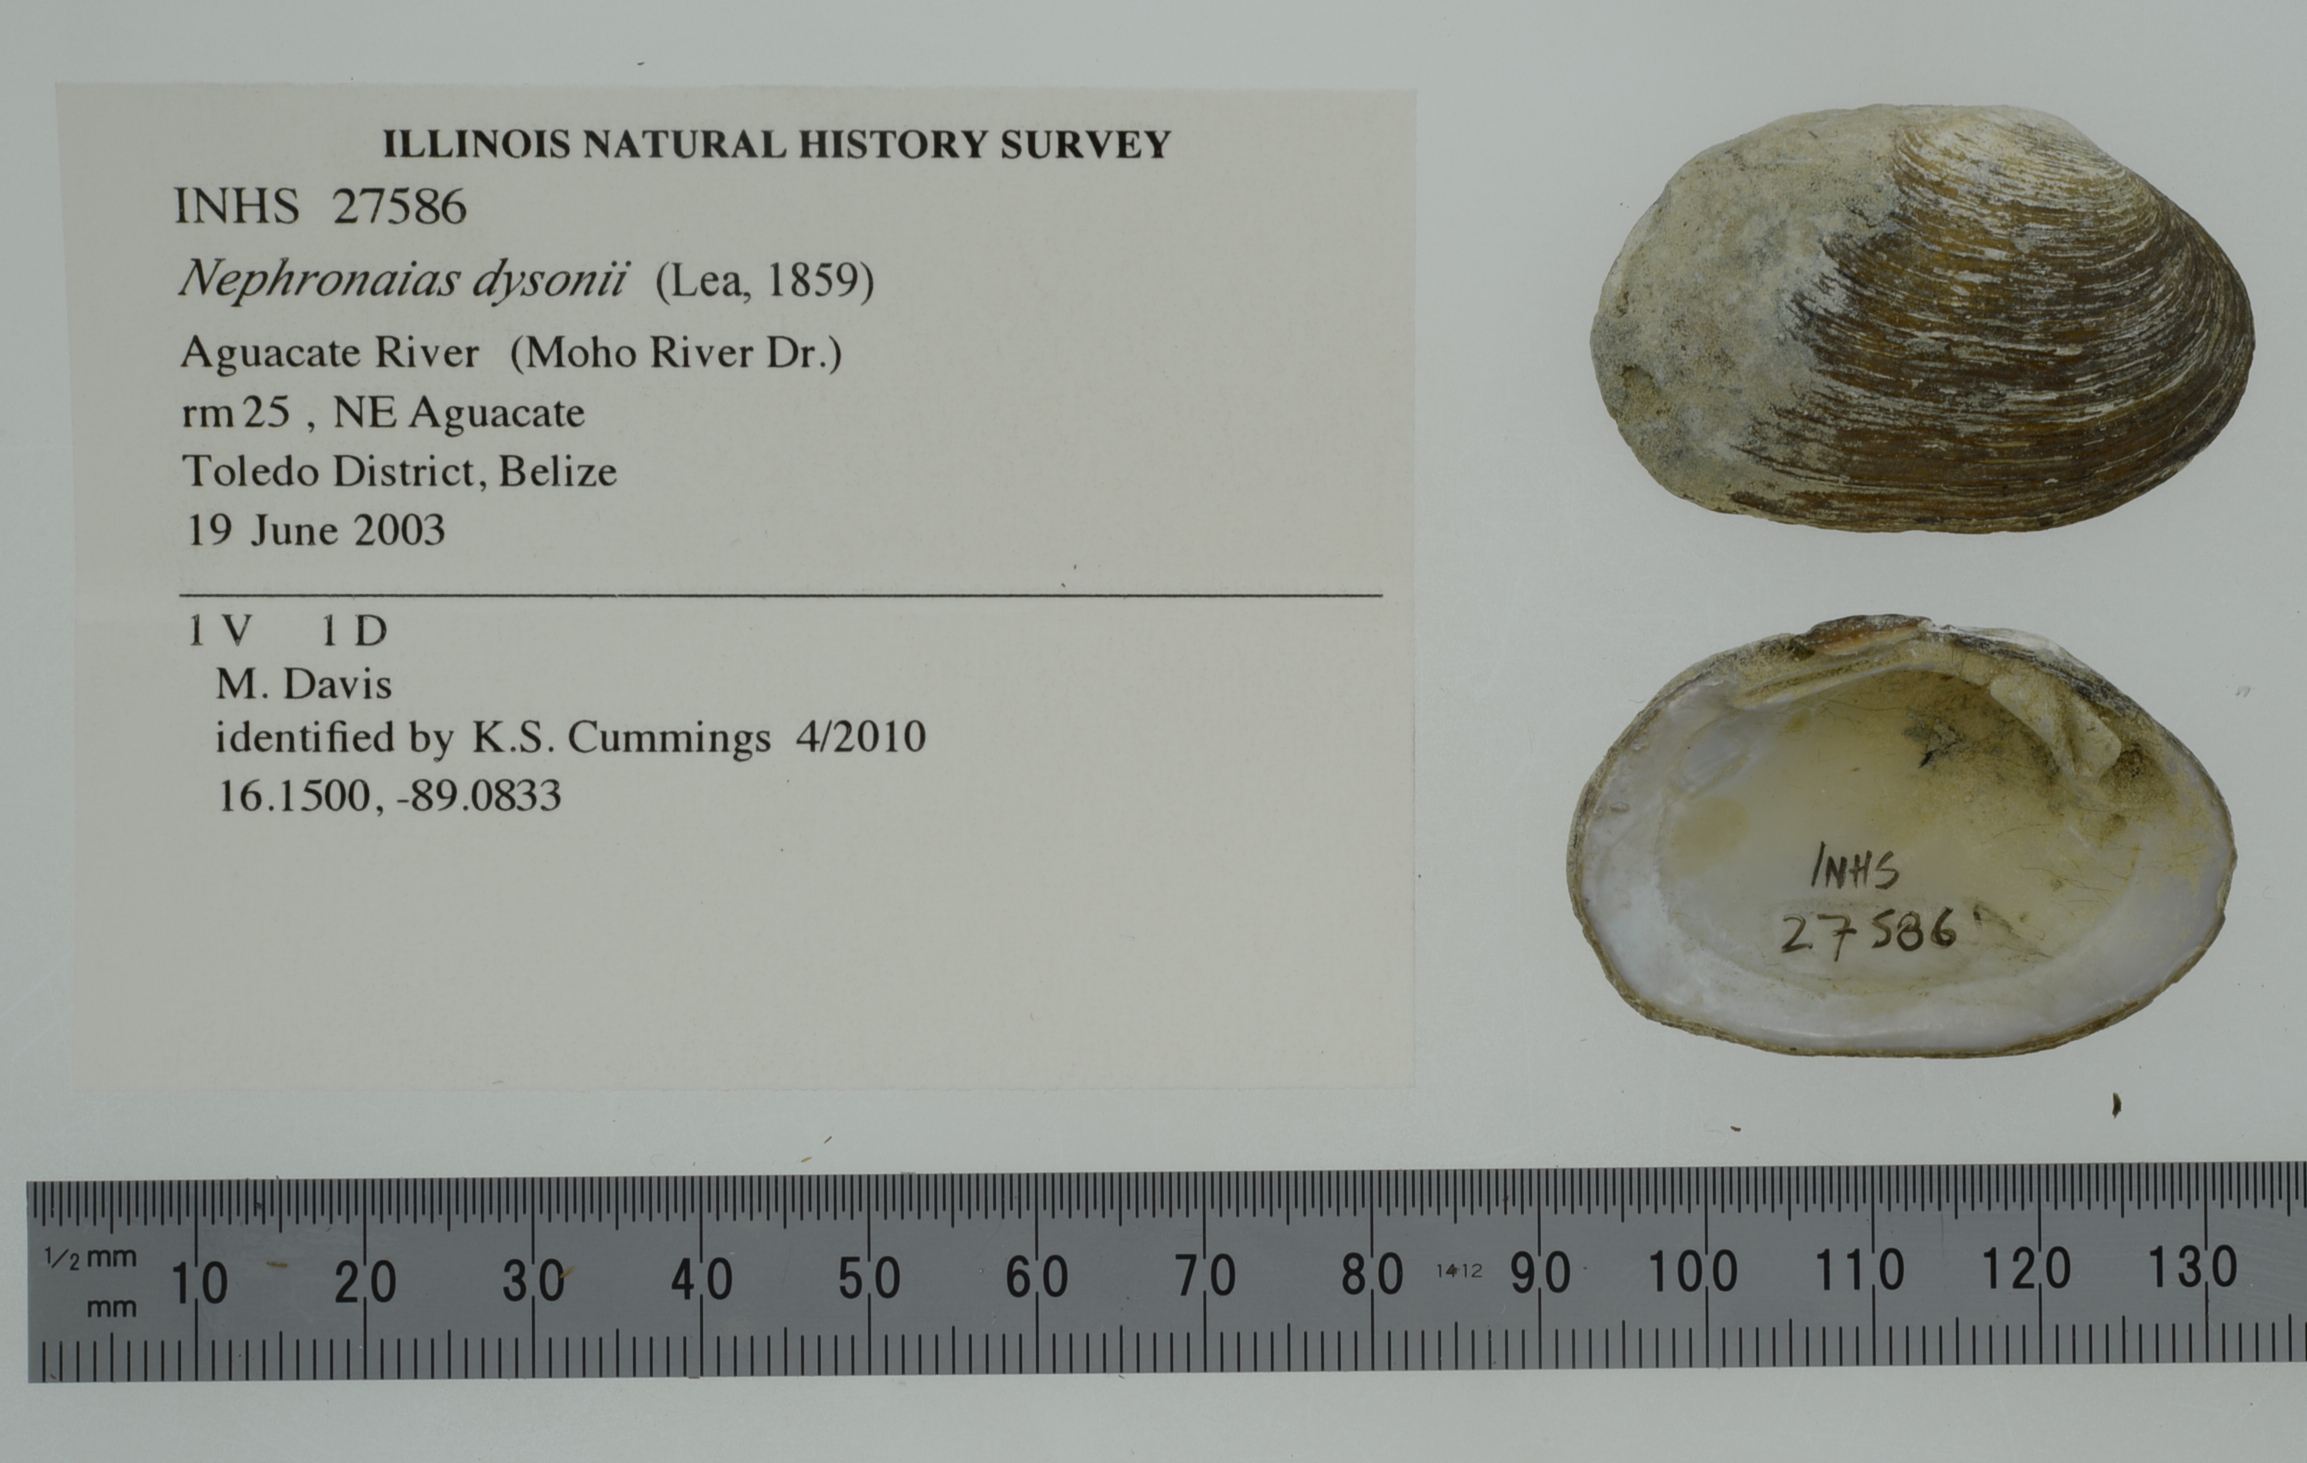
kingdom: Animalia
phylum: Mollusca
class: Bivalvia
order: Unionida
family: Unionidae
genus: Nephronaias
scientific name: Nephronaias dysonii
